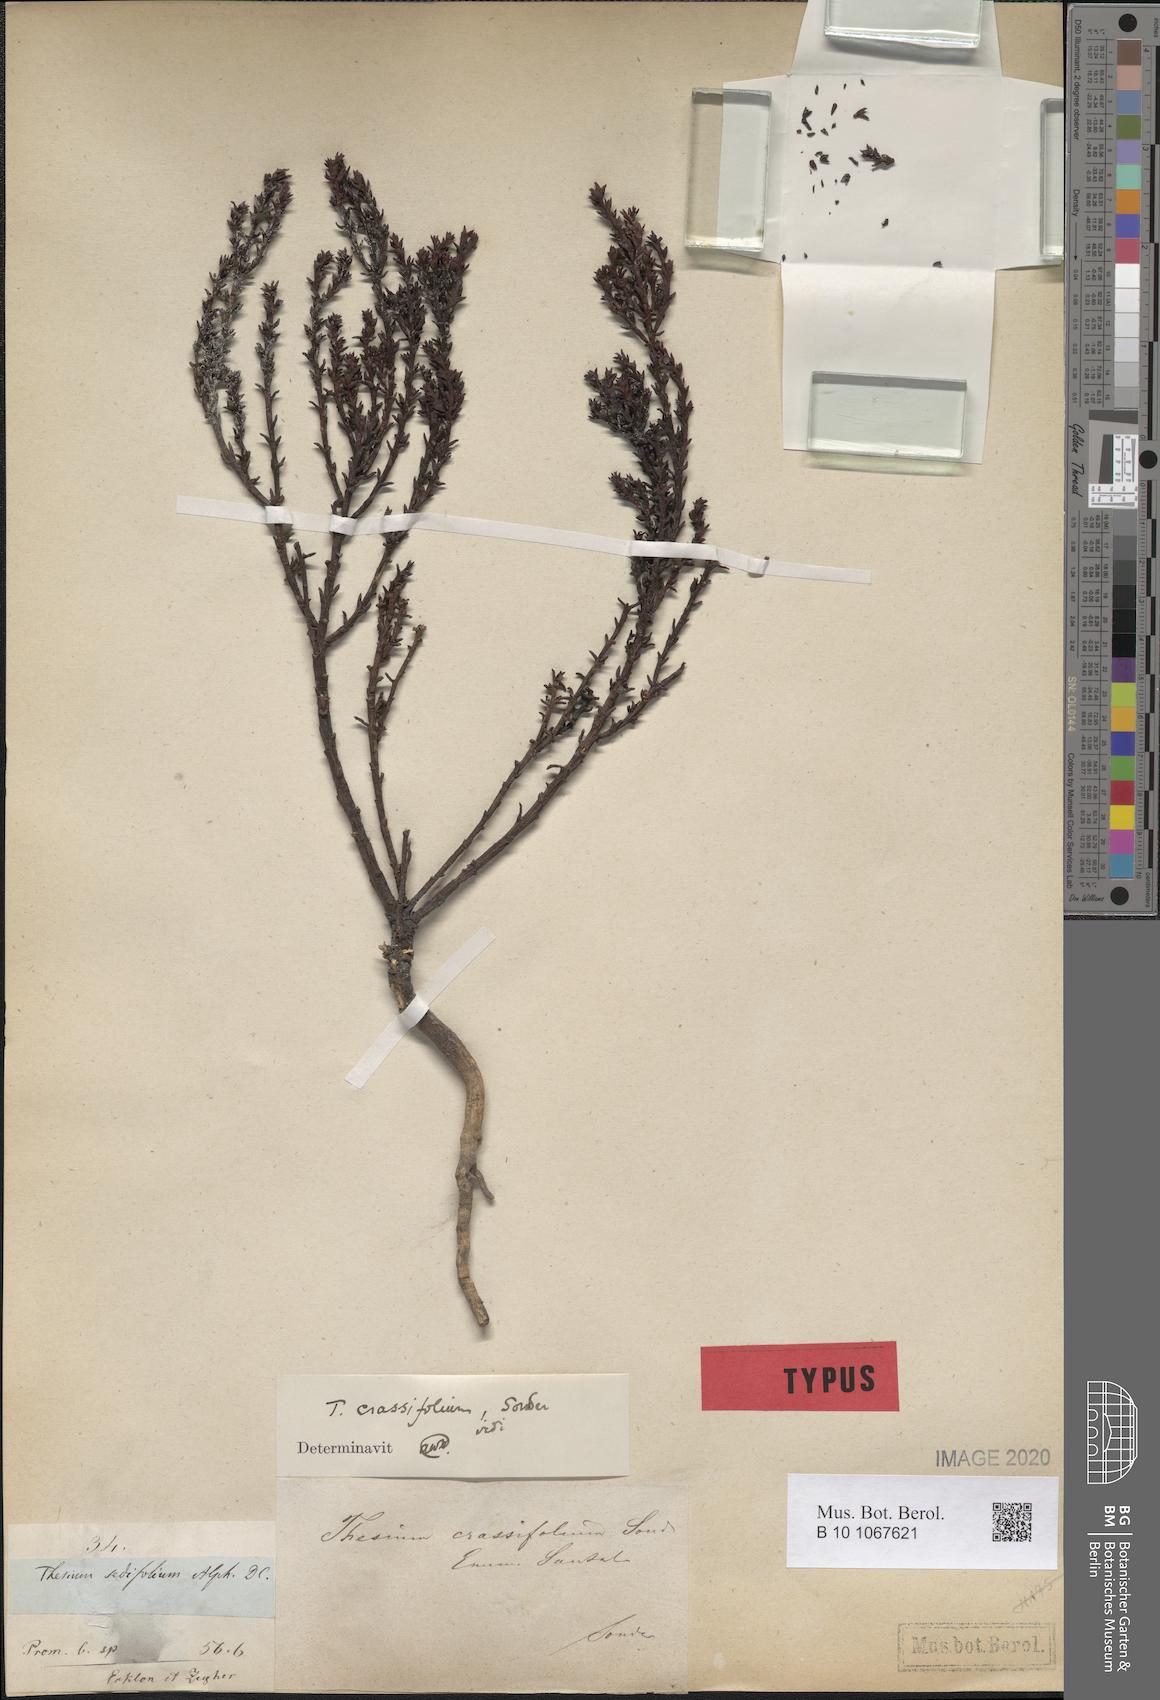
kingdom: Plantae
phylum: Tracheophyta
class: Magnoliopsida
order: Santalales
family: Thesiaceae
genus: Thesium
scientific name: Thesium sedifolium
